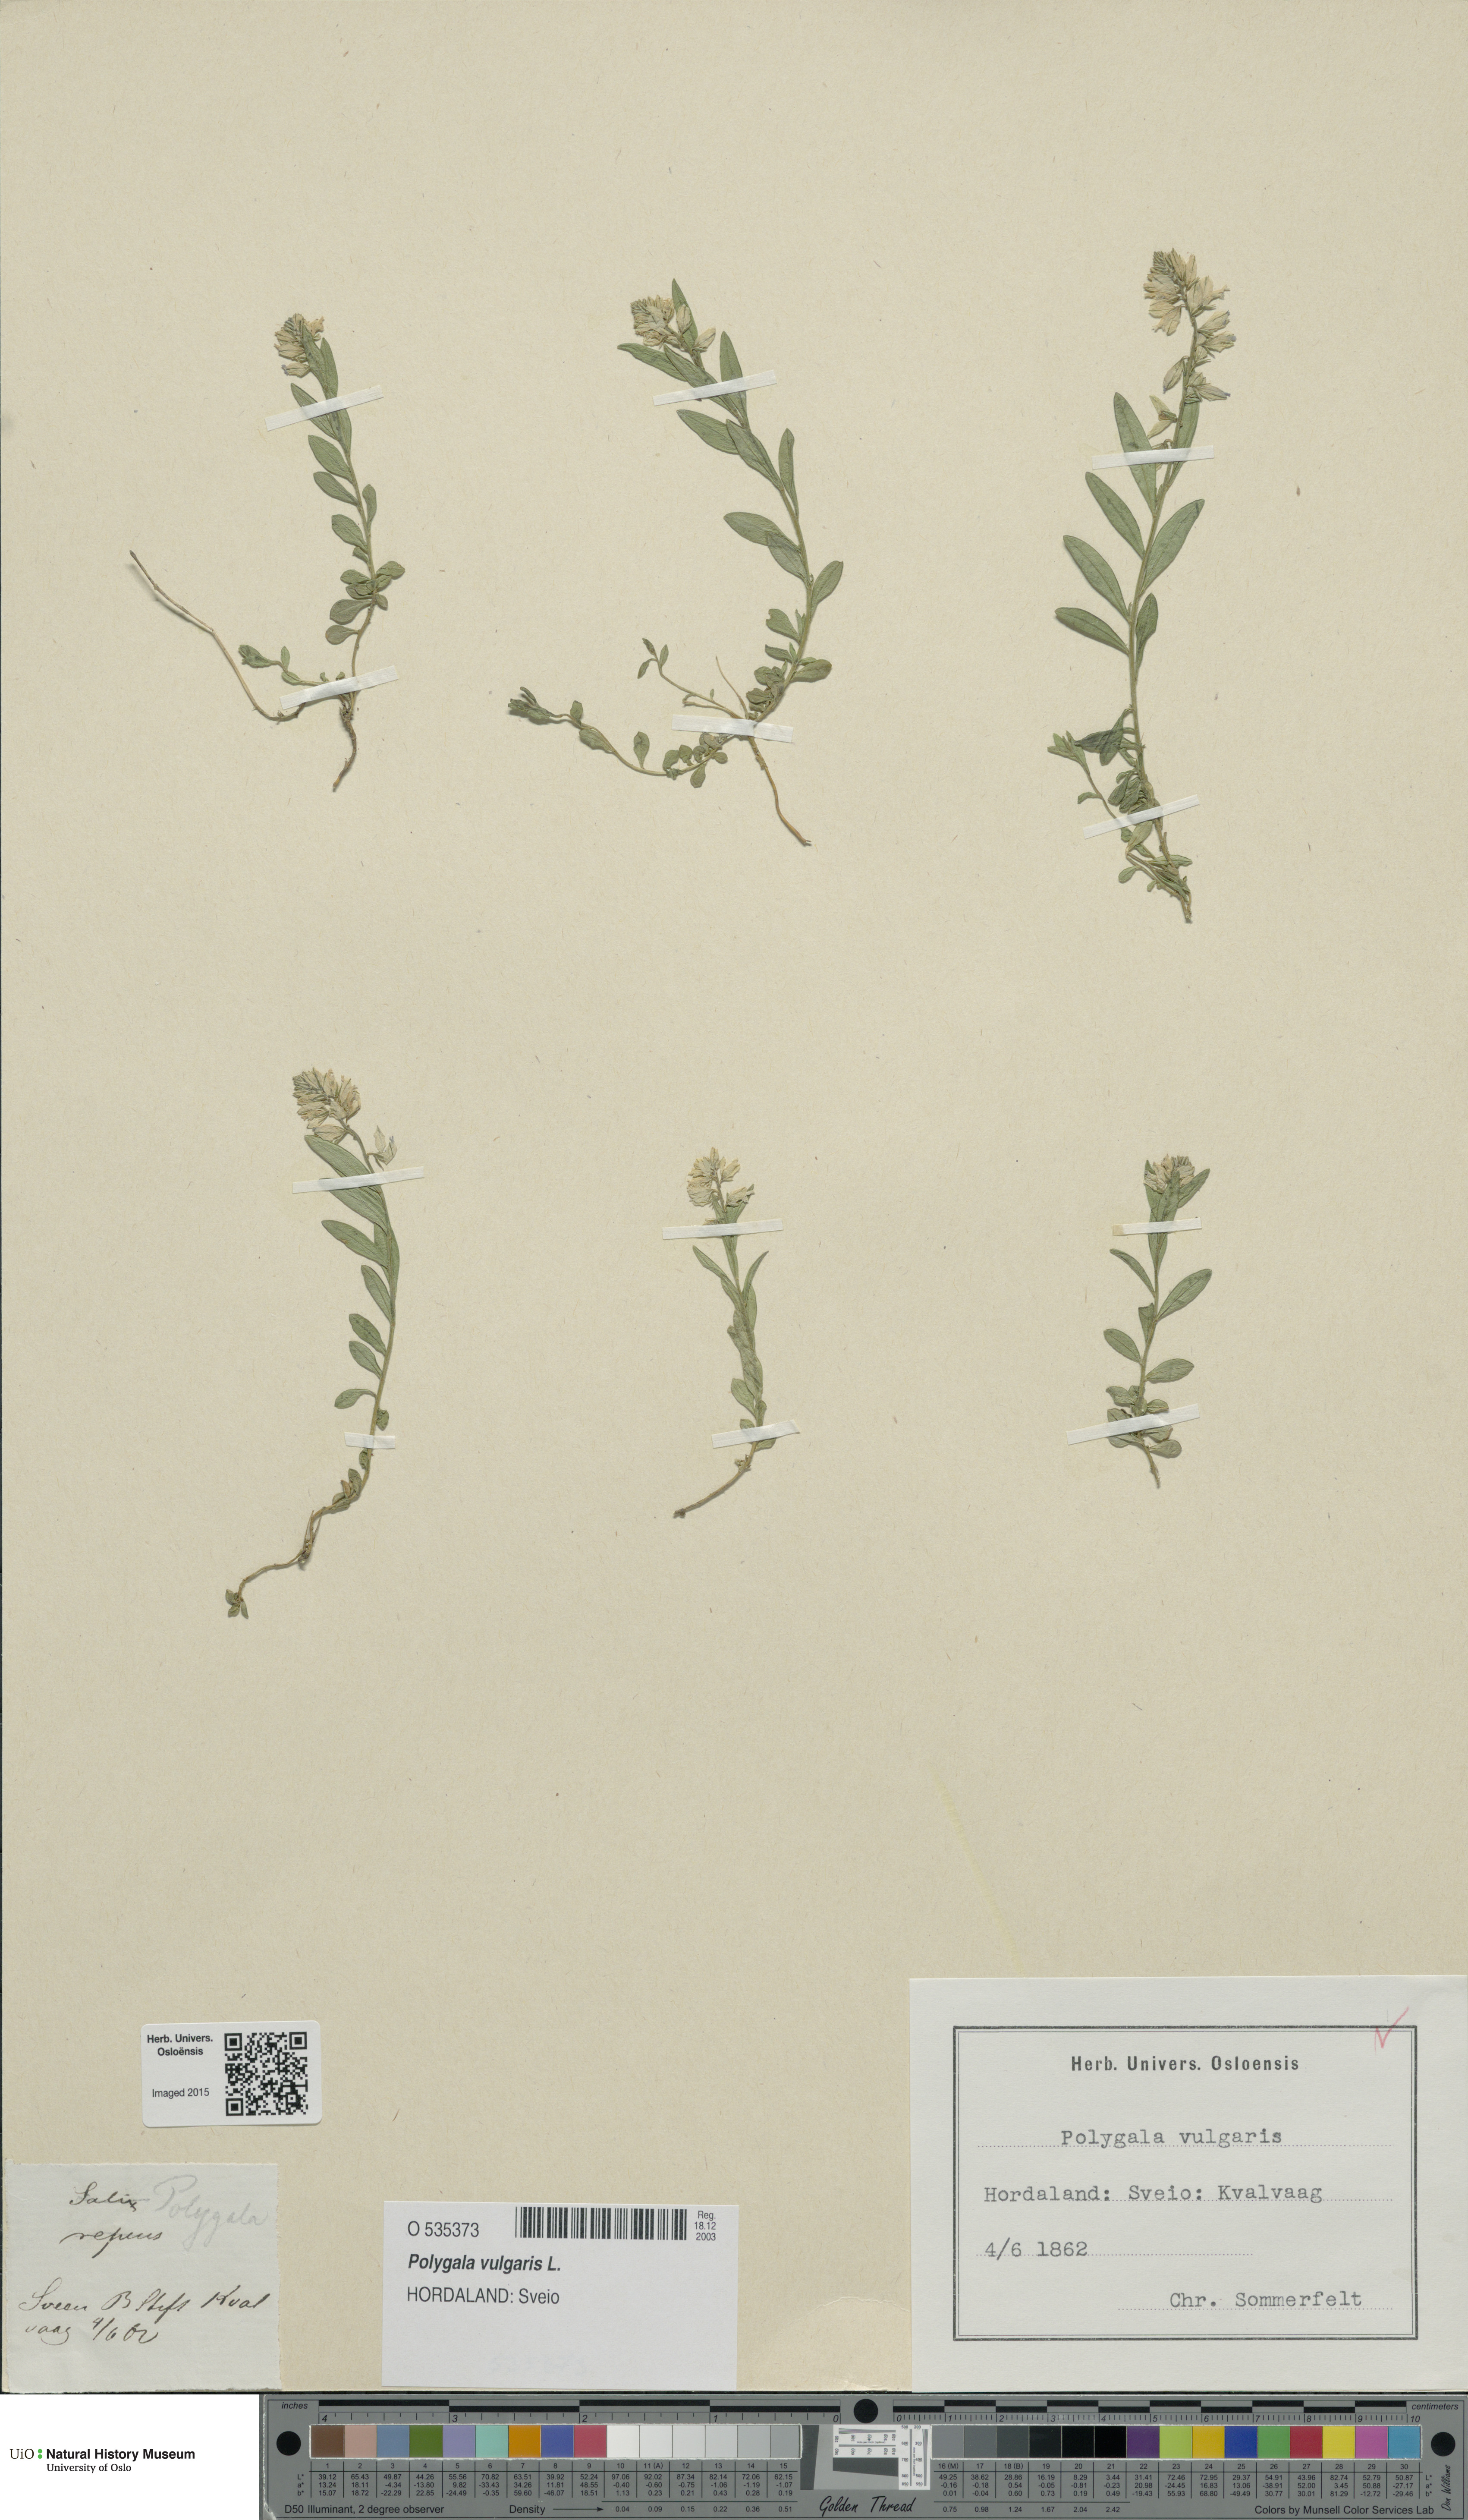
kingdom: Plantae
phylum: Tracheophyta
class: Magnoliopsida
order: Fabales
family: Polygalaceae
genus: Polygala
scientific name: Polygala vulgaris
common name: Common milkwort
